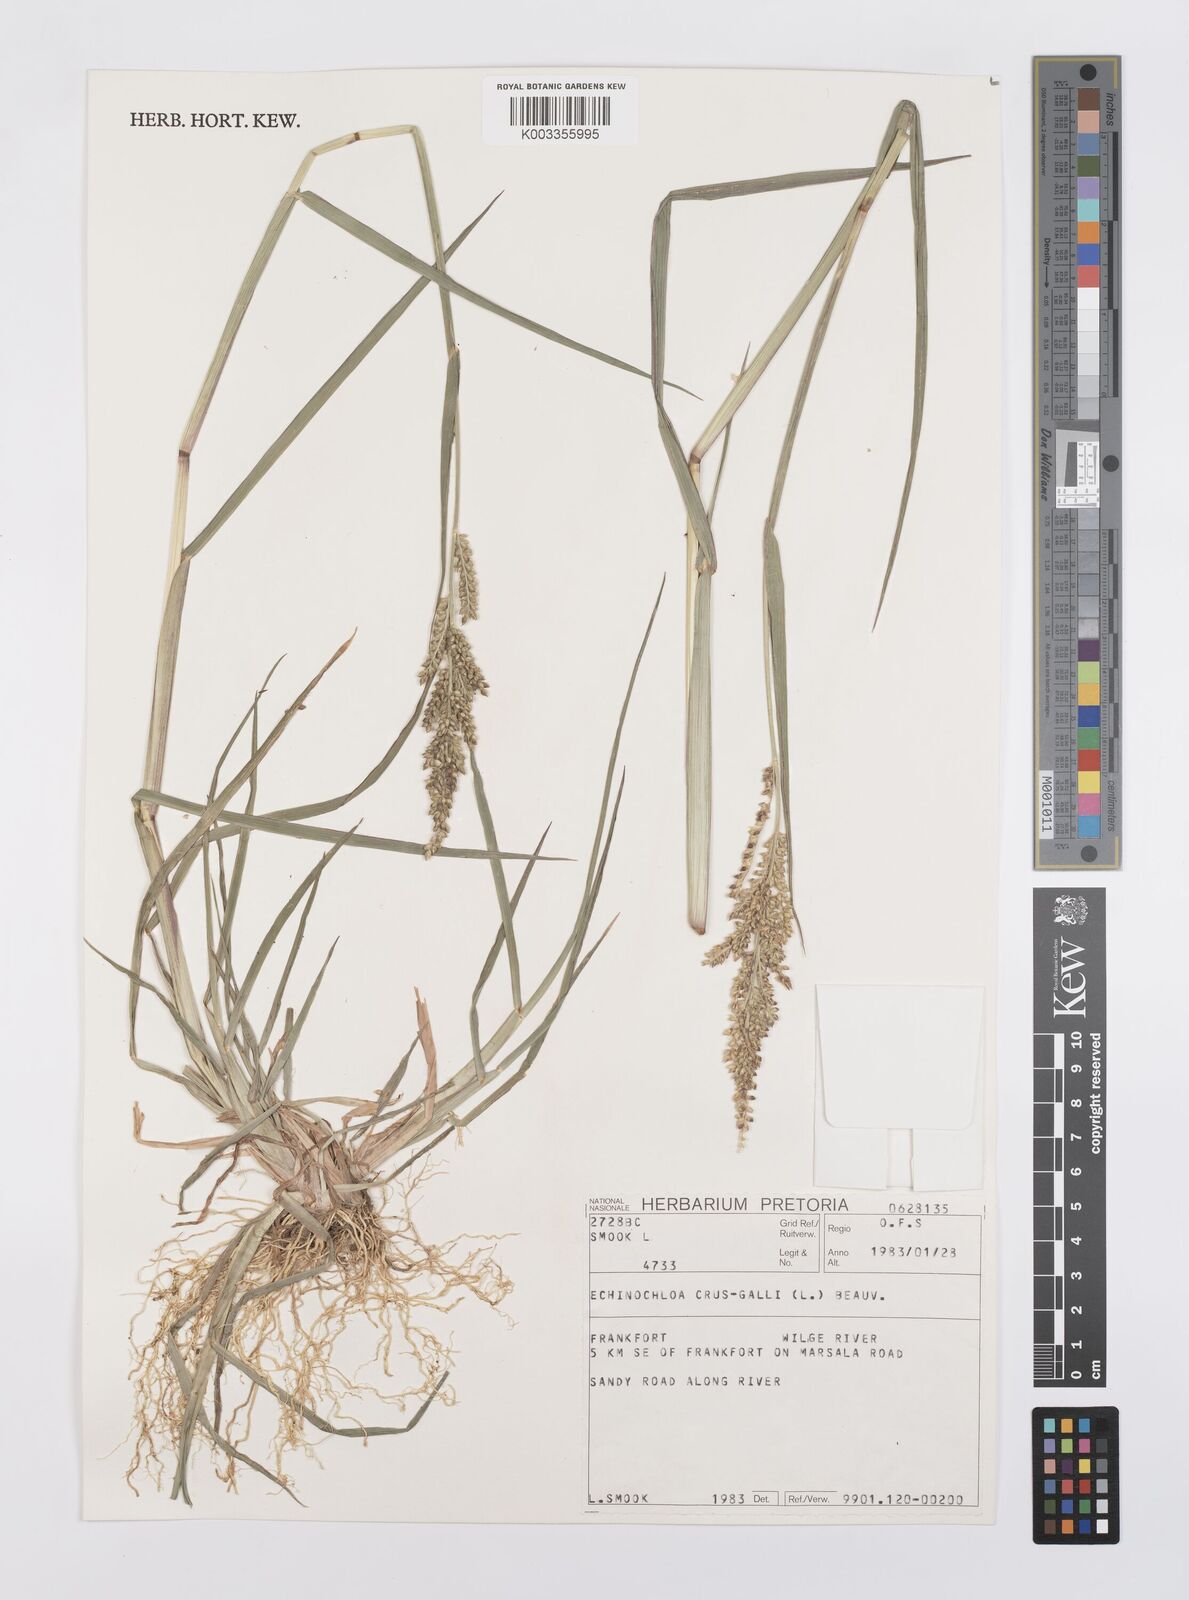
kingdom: Plantae
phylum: Tracheophyta
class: Liliopsida
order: Poales
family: Poaceae
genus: Echinochloa
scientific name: Echinochloa crus-galli
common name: Cockspur
